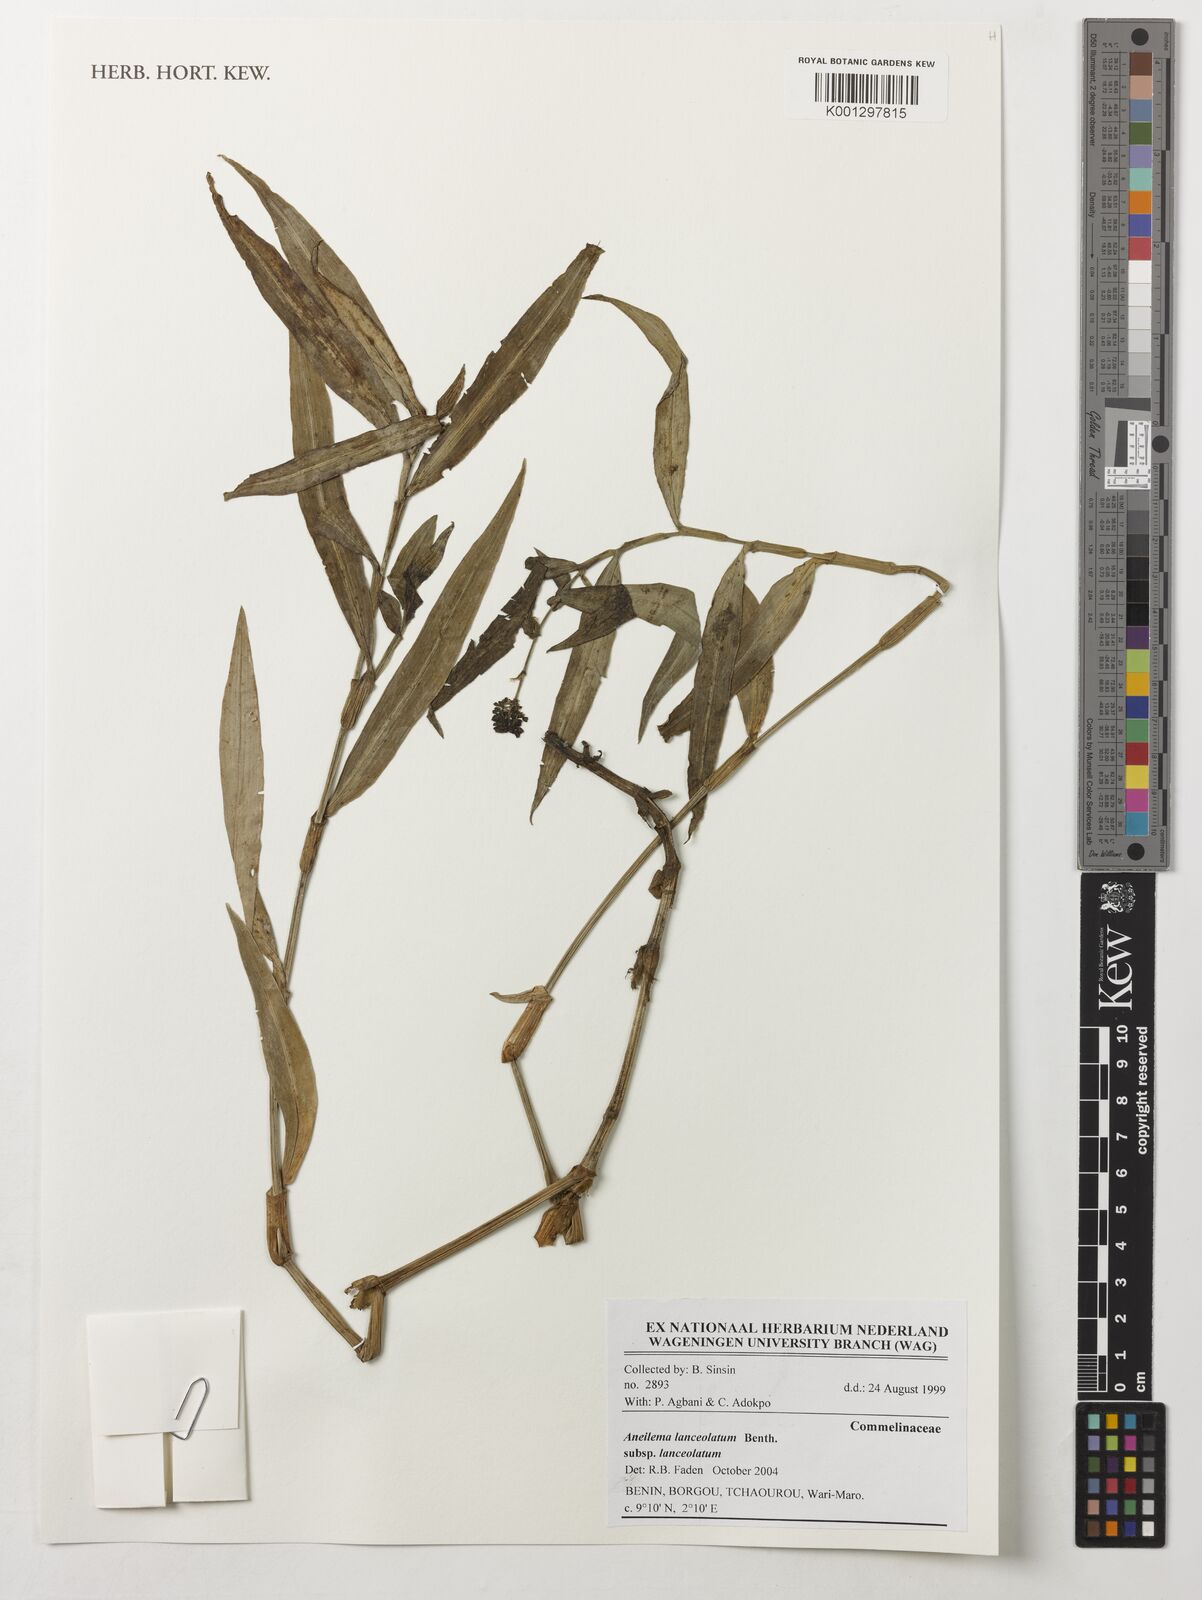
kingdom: Plantae
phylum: Tracheophyta
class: Liliopsida
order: Commelinales
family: Commelinaceae
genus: Aneilema
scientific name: Aneilema lanceolatum
